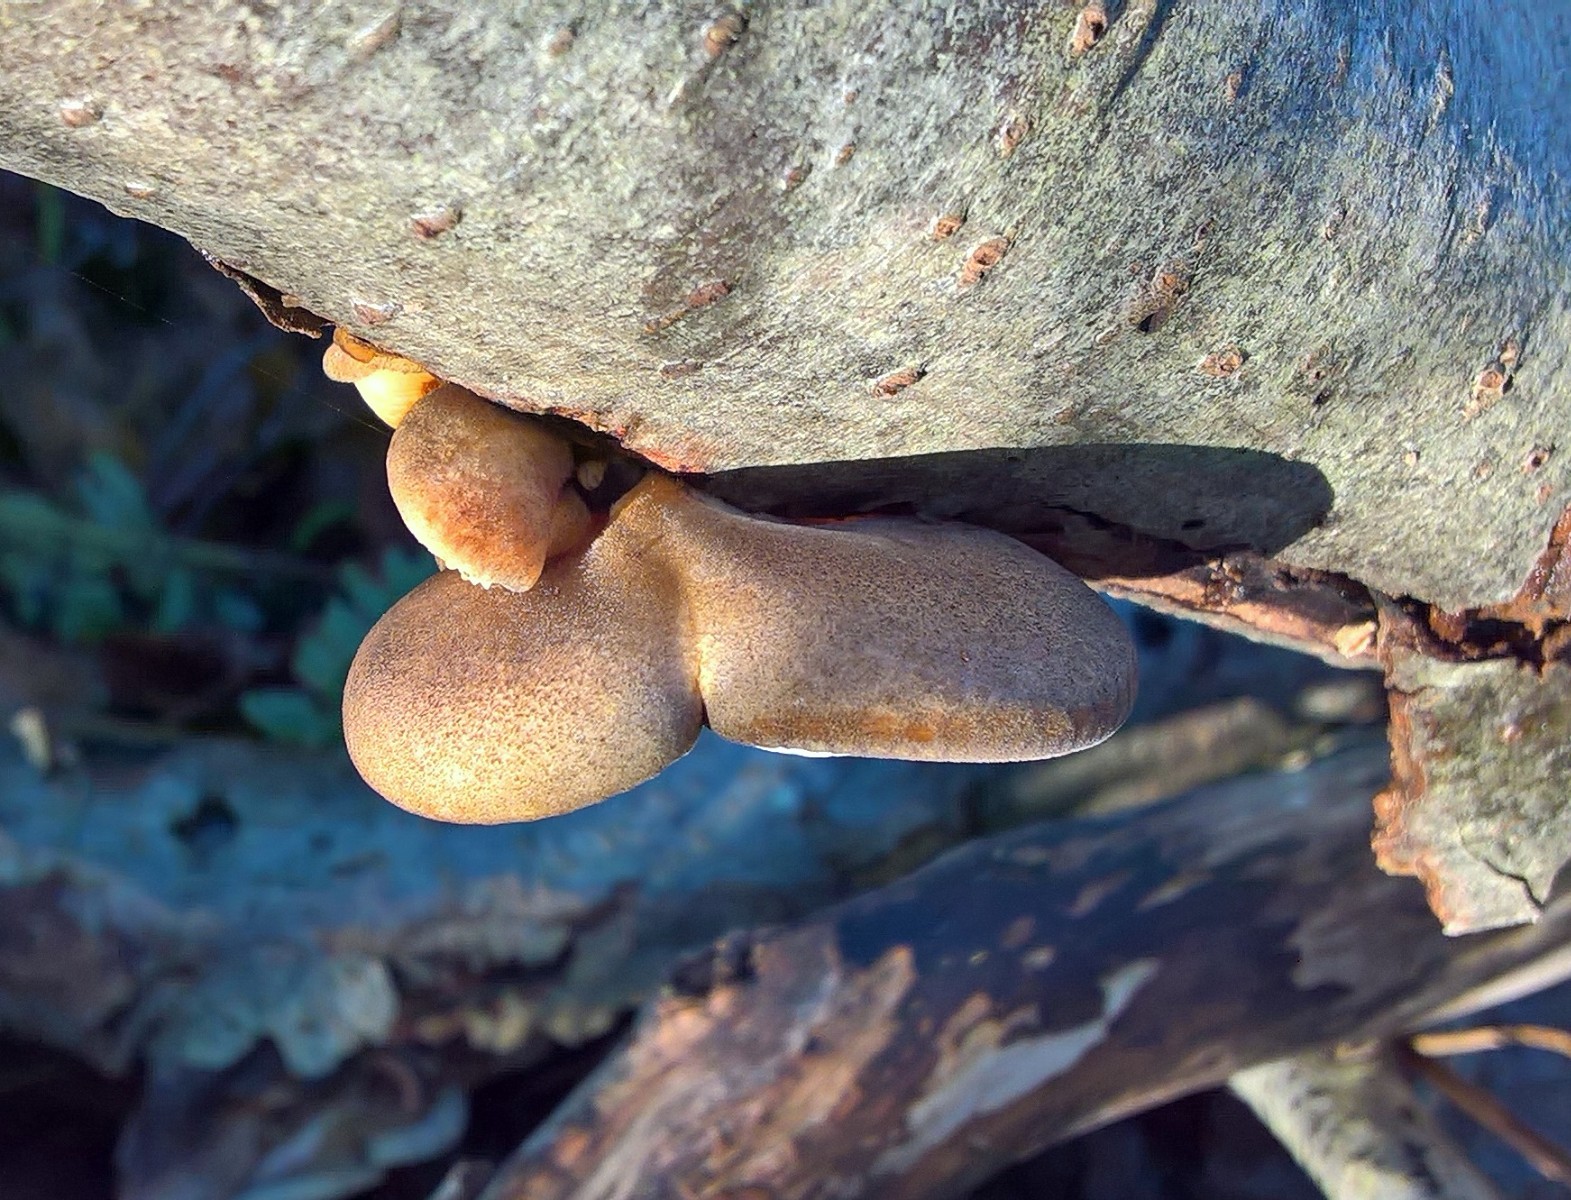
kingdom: Fungi
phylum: Basidiomycota
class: Agaricomycetes
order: Agaricales
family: Sarcomyxaceae
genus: Sarcomyxa
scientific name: Sarcomyxa serotina
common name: gummihat
